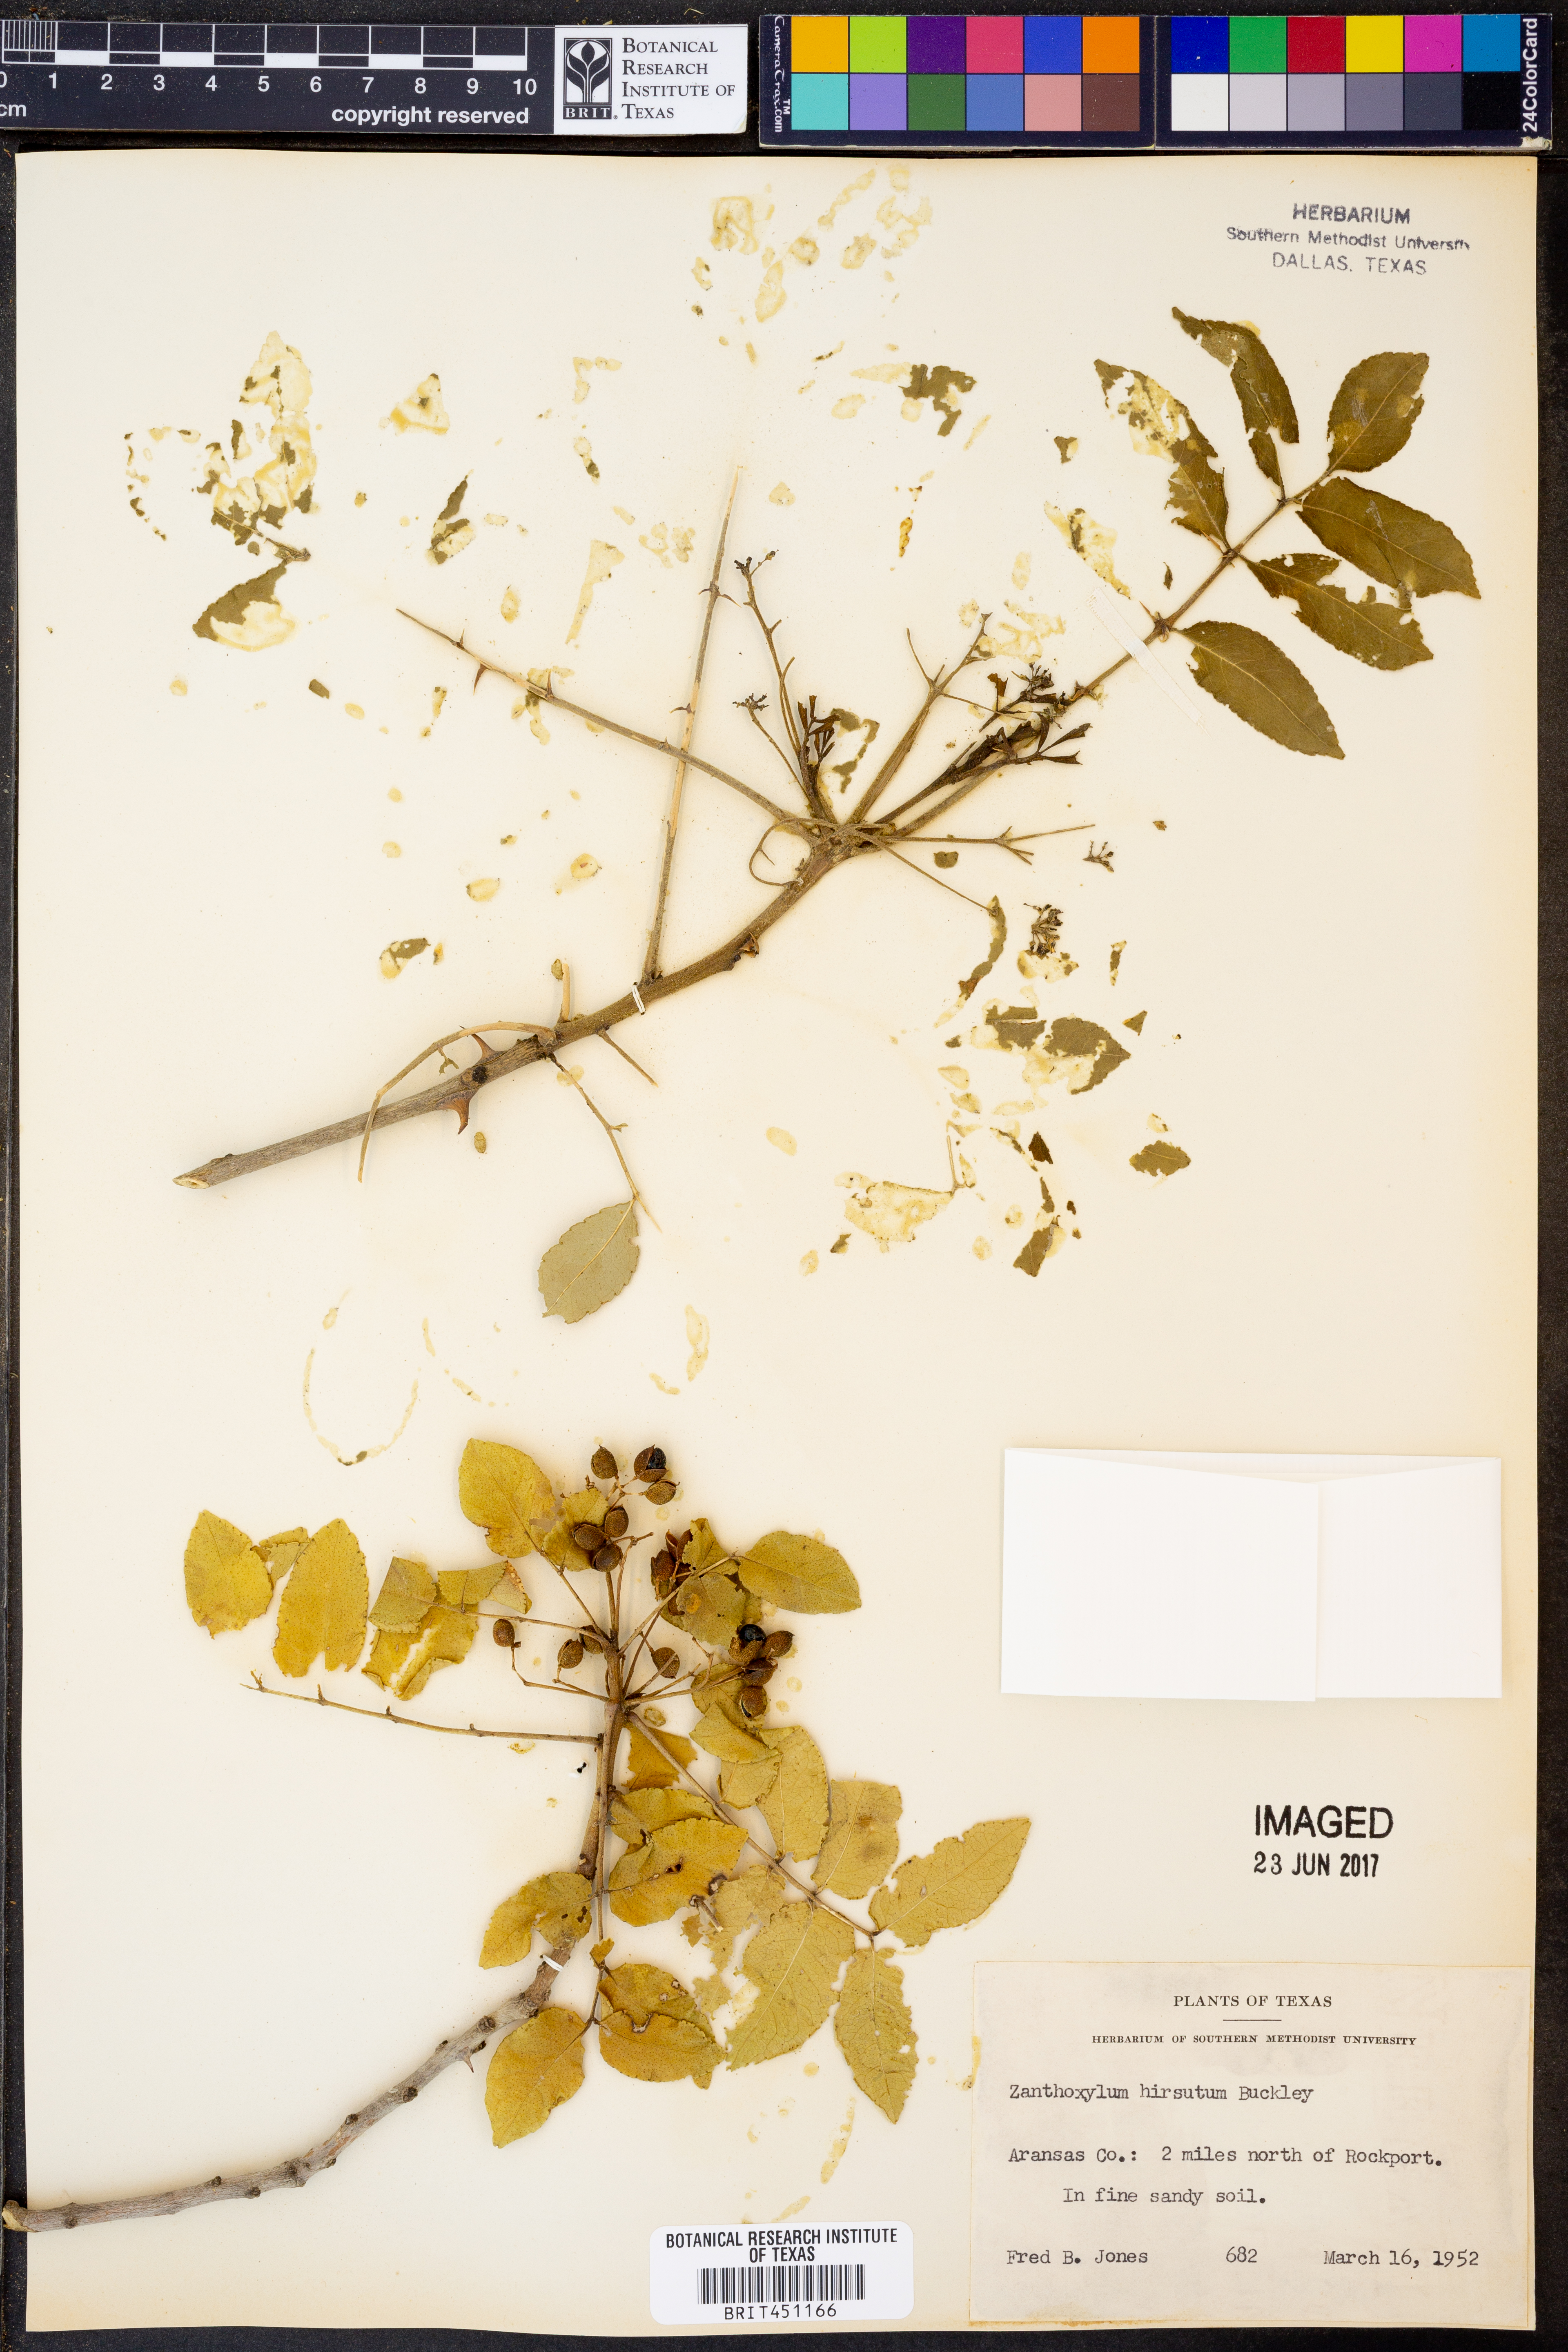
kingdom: Plantae
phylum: Tracheophyta
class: Magnoliopsida
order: Sapindales
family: Rutaceae
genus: Zanthoxylum
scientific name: Zanthoxylum clava-herculis
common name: Hercules'-club
